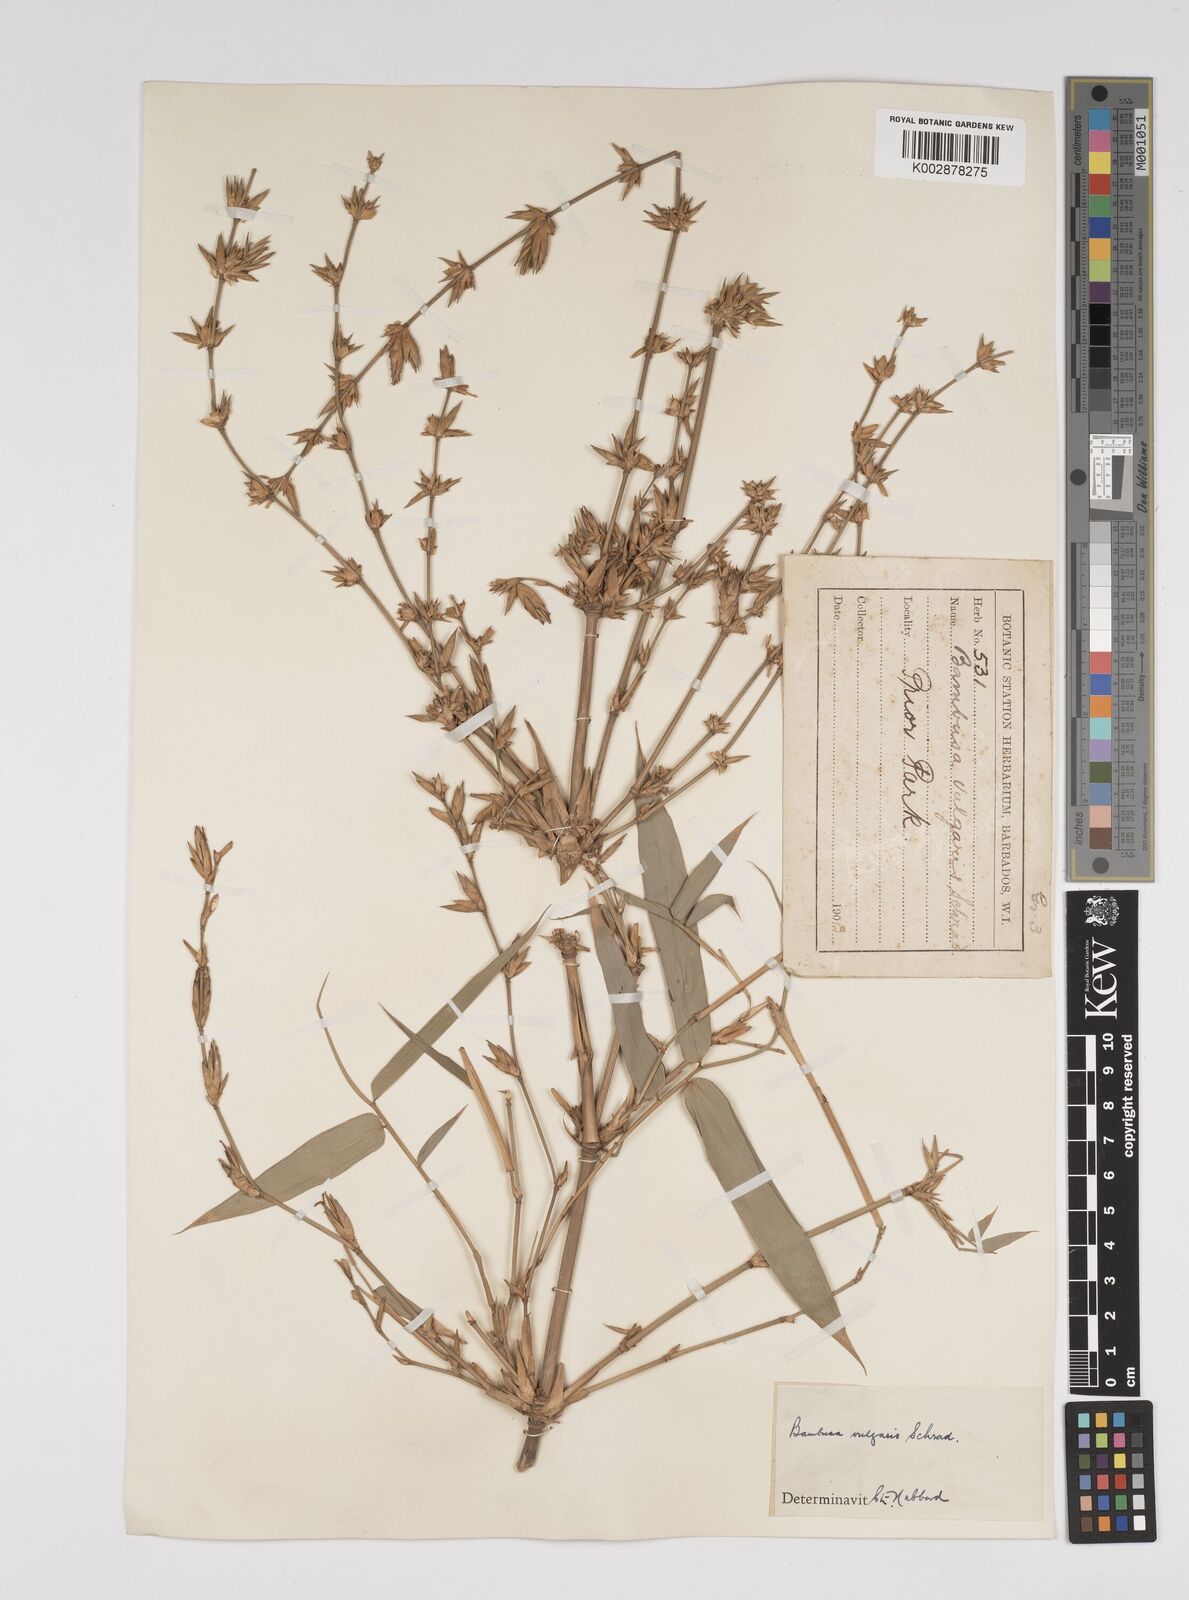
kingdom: Plantae
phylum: Tracheophyta
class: Liliopsida
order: Poales
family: Poaceae
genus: Bambusa
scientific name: Bambusa vulgaris
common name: Common bamboo
